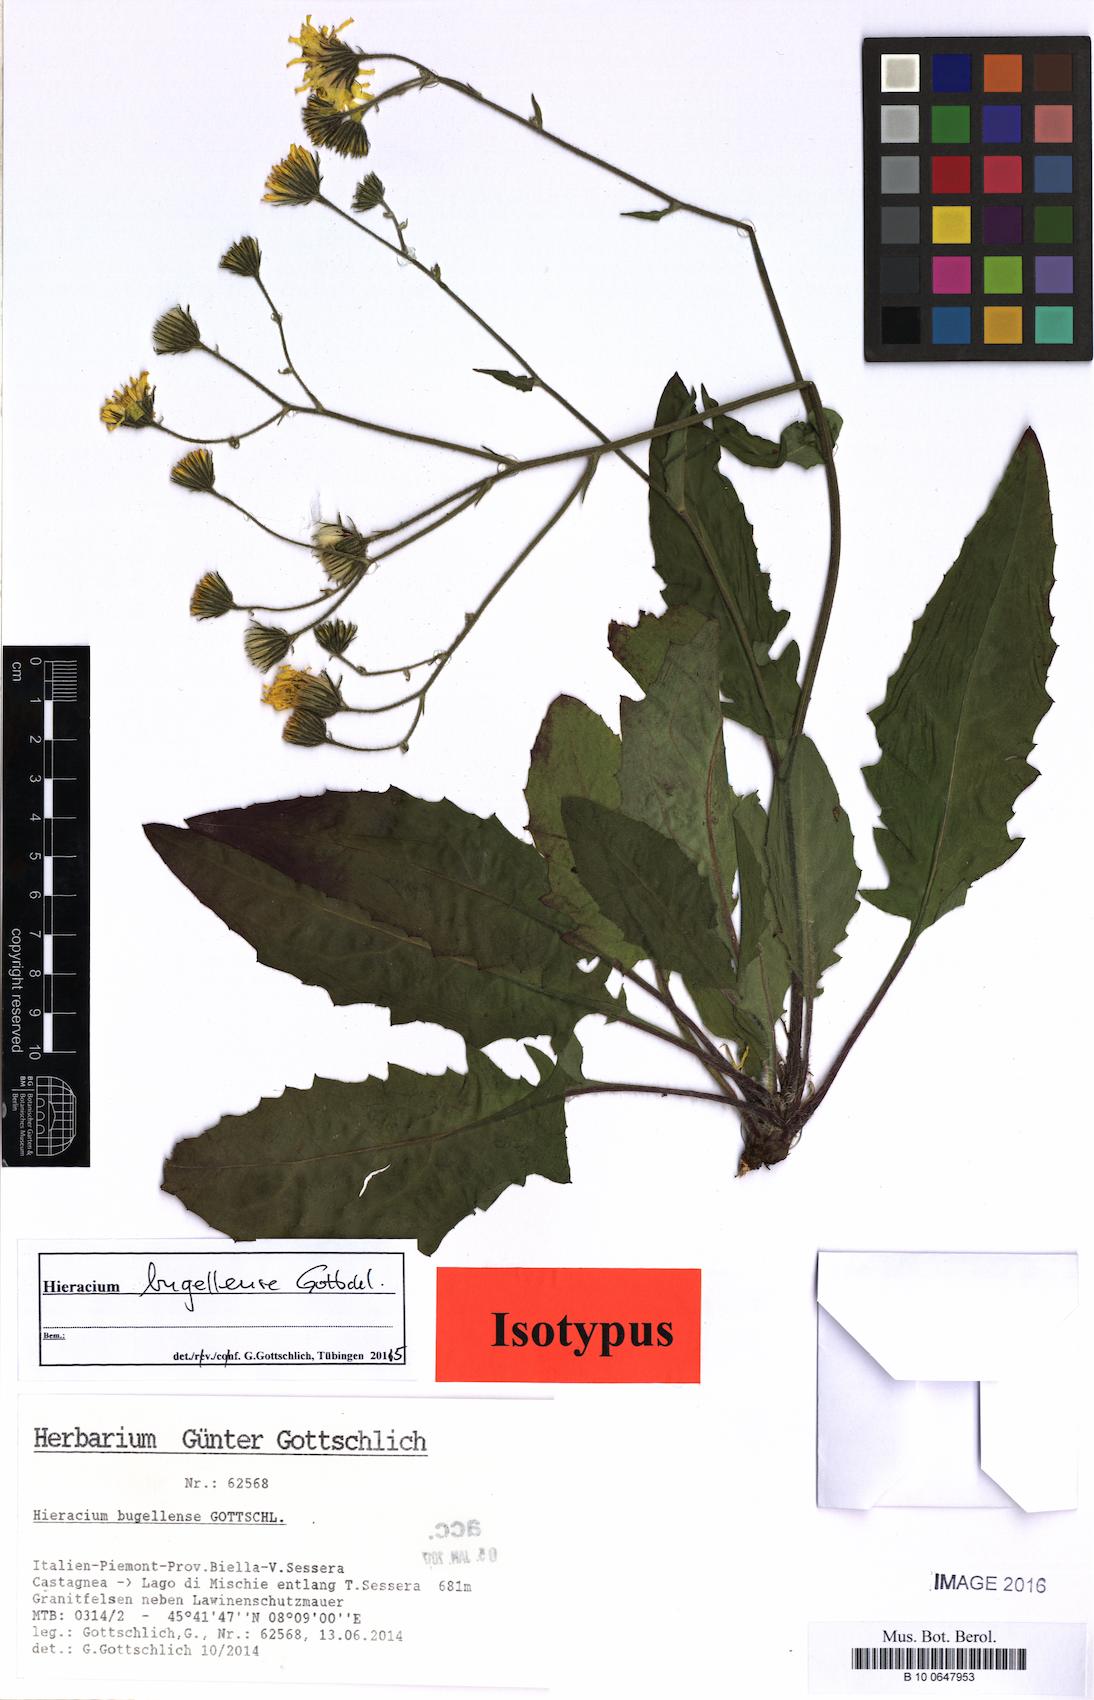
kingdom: Plantae
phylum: Tracheophyta
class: Magnoliopsida
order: Asterales
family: Asteraceae
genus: Hieracium
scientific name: Hieracium bugellense
